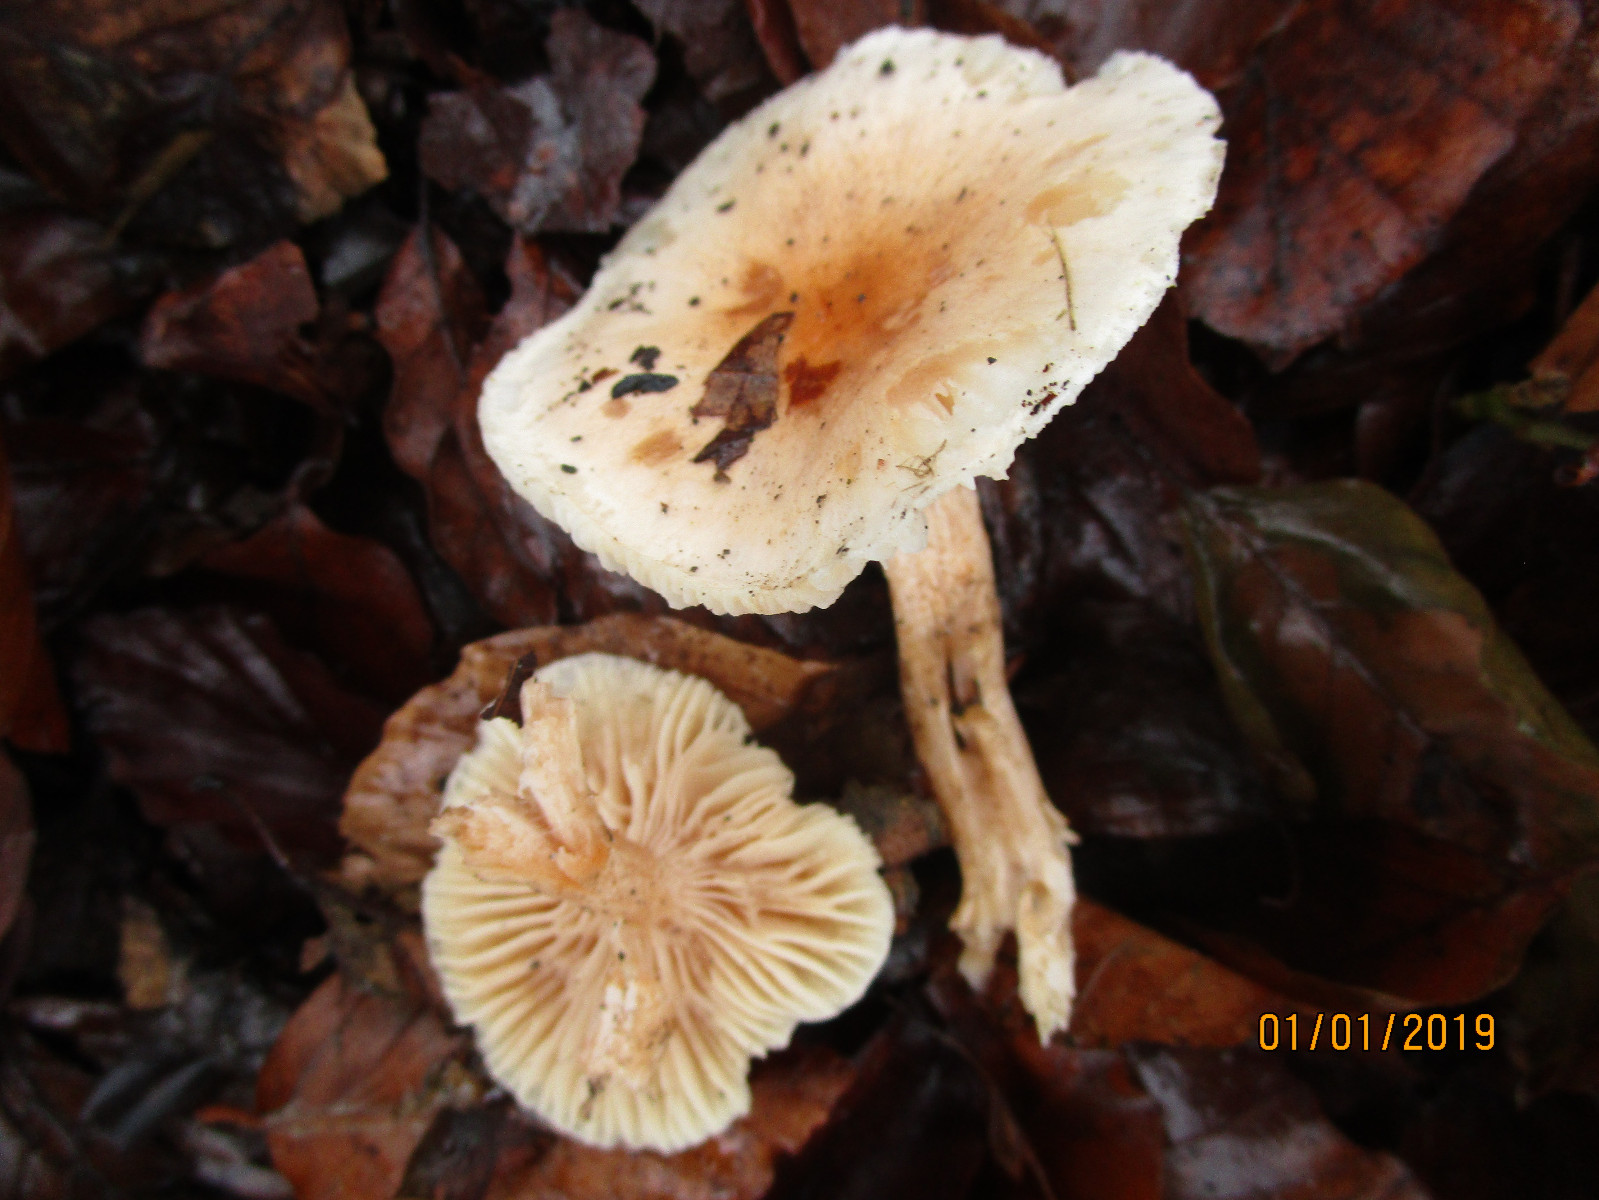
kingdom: Fungi
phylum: Basidiomycota
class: Agaricomycetes
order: Agaricales
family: Hygrophoraceae
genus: Hygrophorus
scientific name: Hygrophorus unicolor
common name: orangeøjet sneglehat
